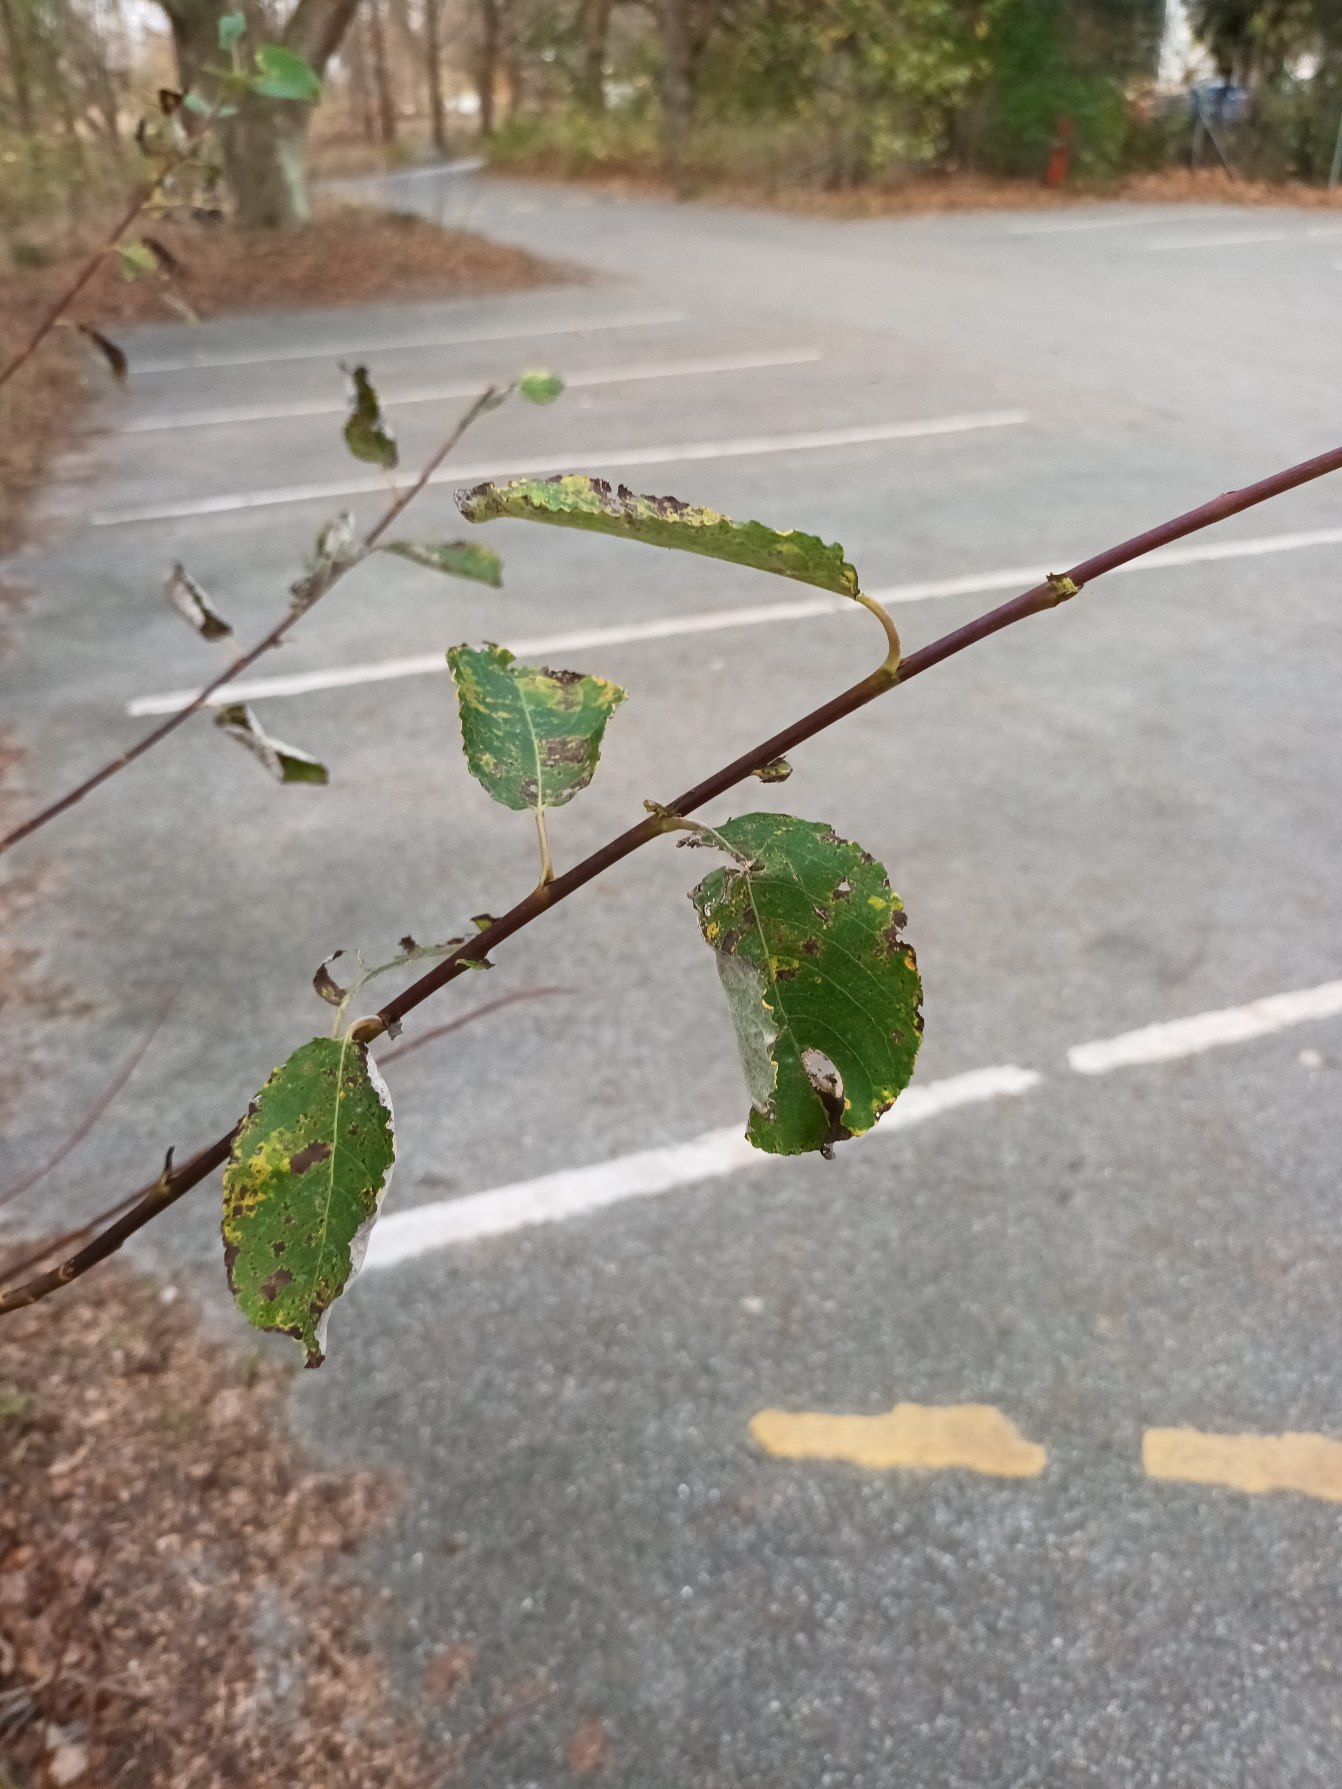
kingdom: Plantae
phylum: Tracheophyta
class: Magnoliopsida
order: Malpighiales
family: Salicaceae
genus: Salix
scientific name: Salix caprea
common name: Selje-pil
